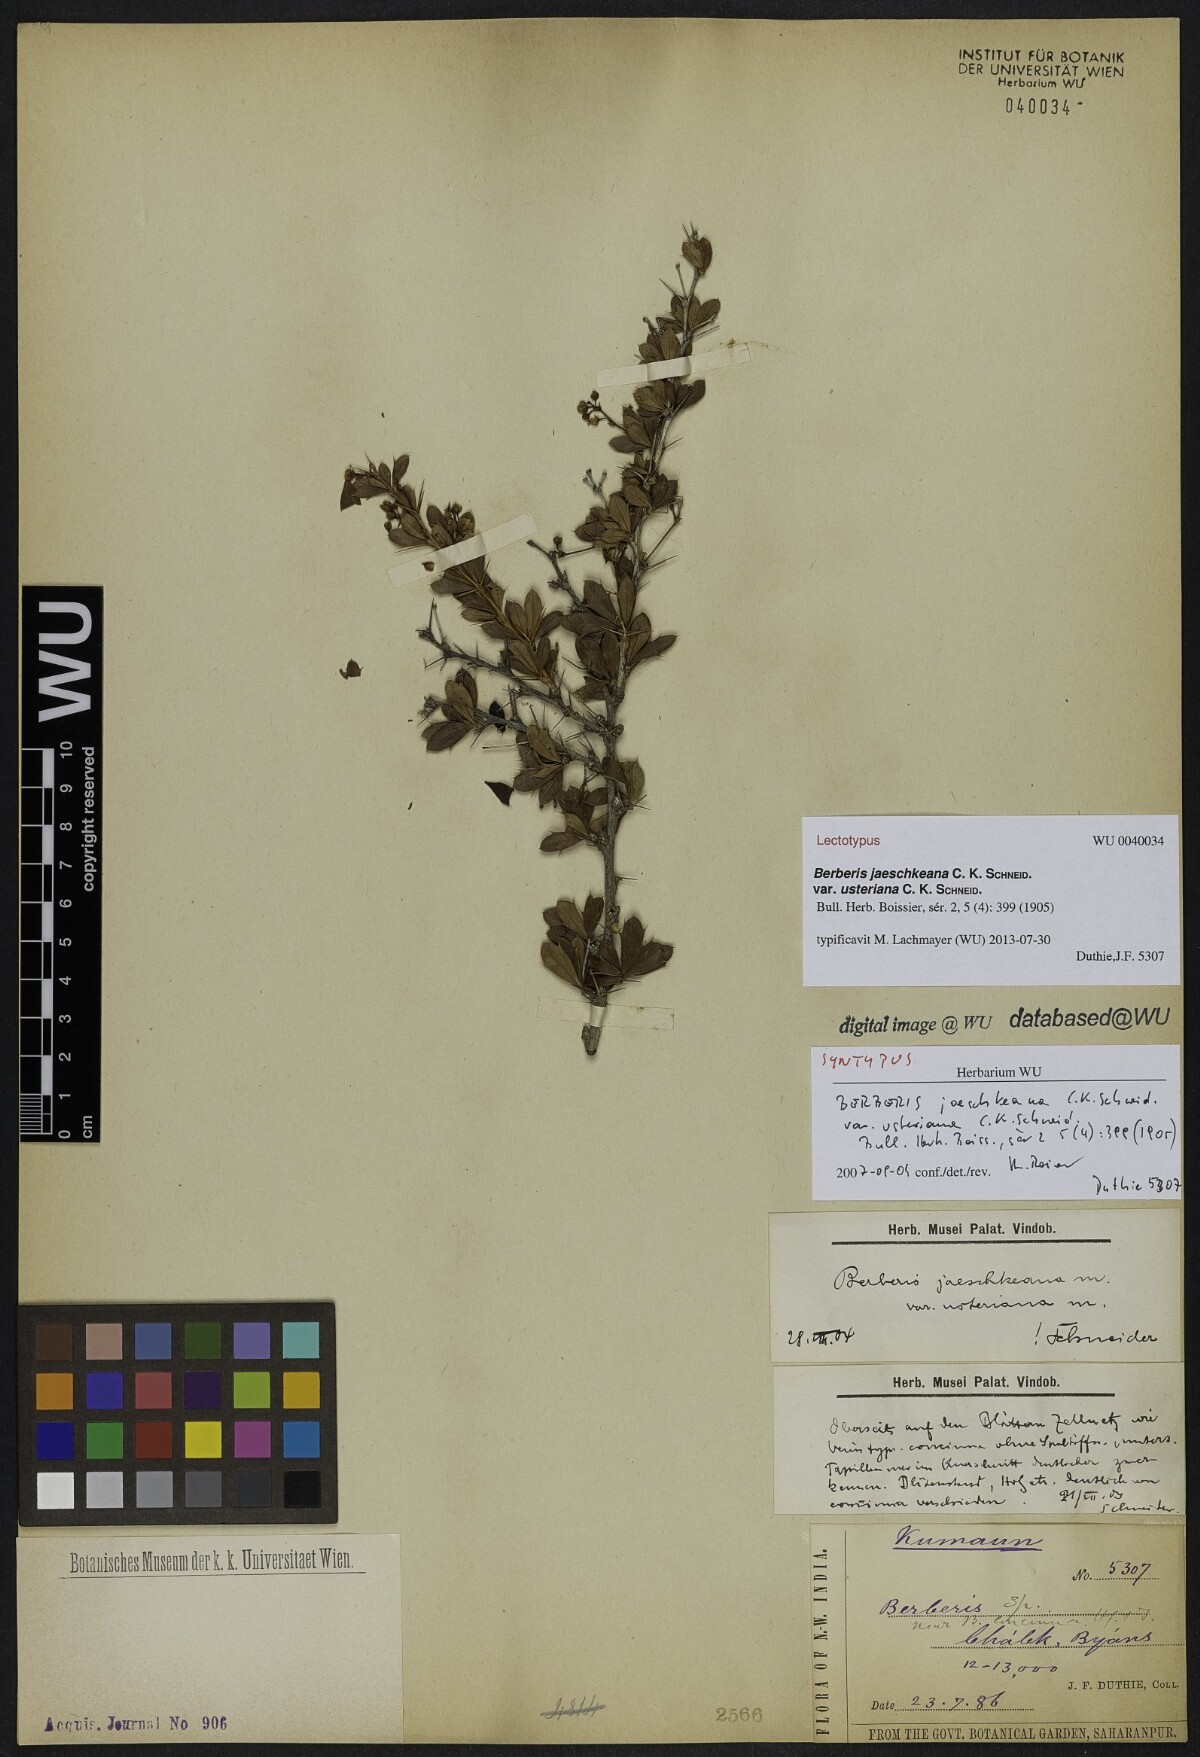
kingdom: Plantae
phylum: Tracheophyta
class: Magnoliopsida
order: Ranunculales
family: Berberidaceae
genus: Berberis
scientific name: Berberis jaeschkeana
